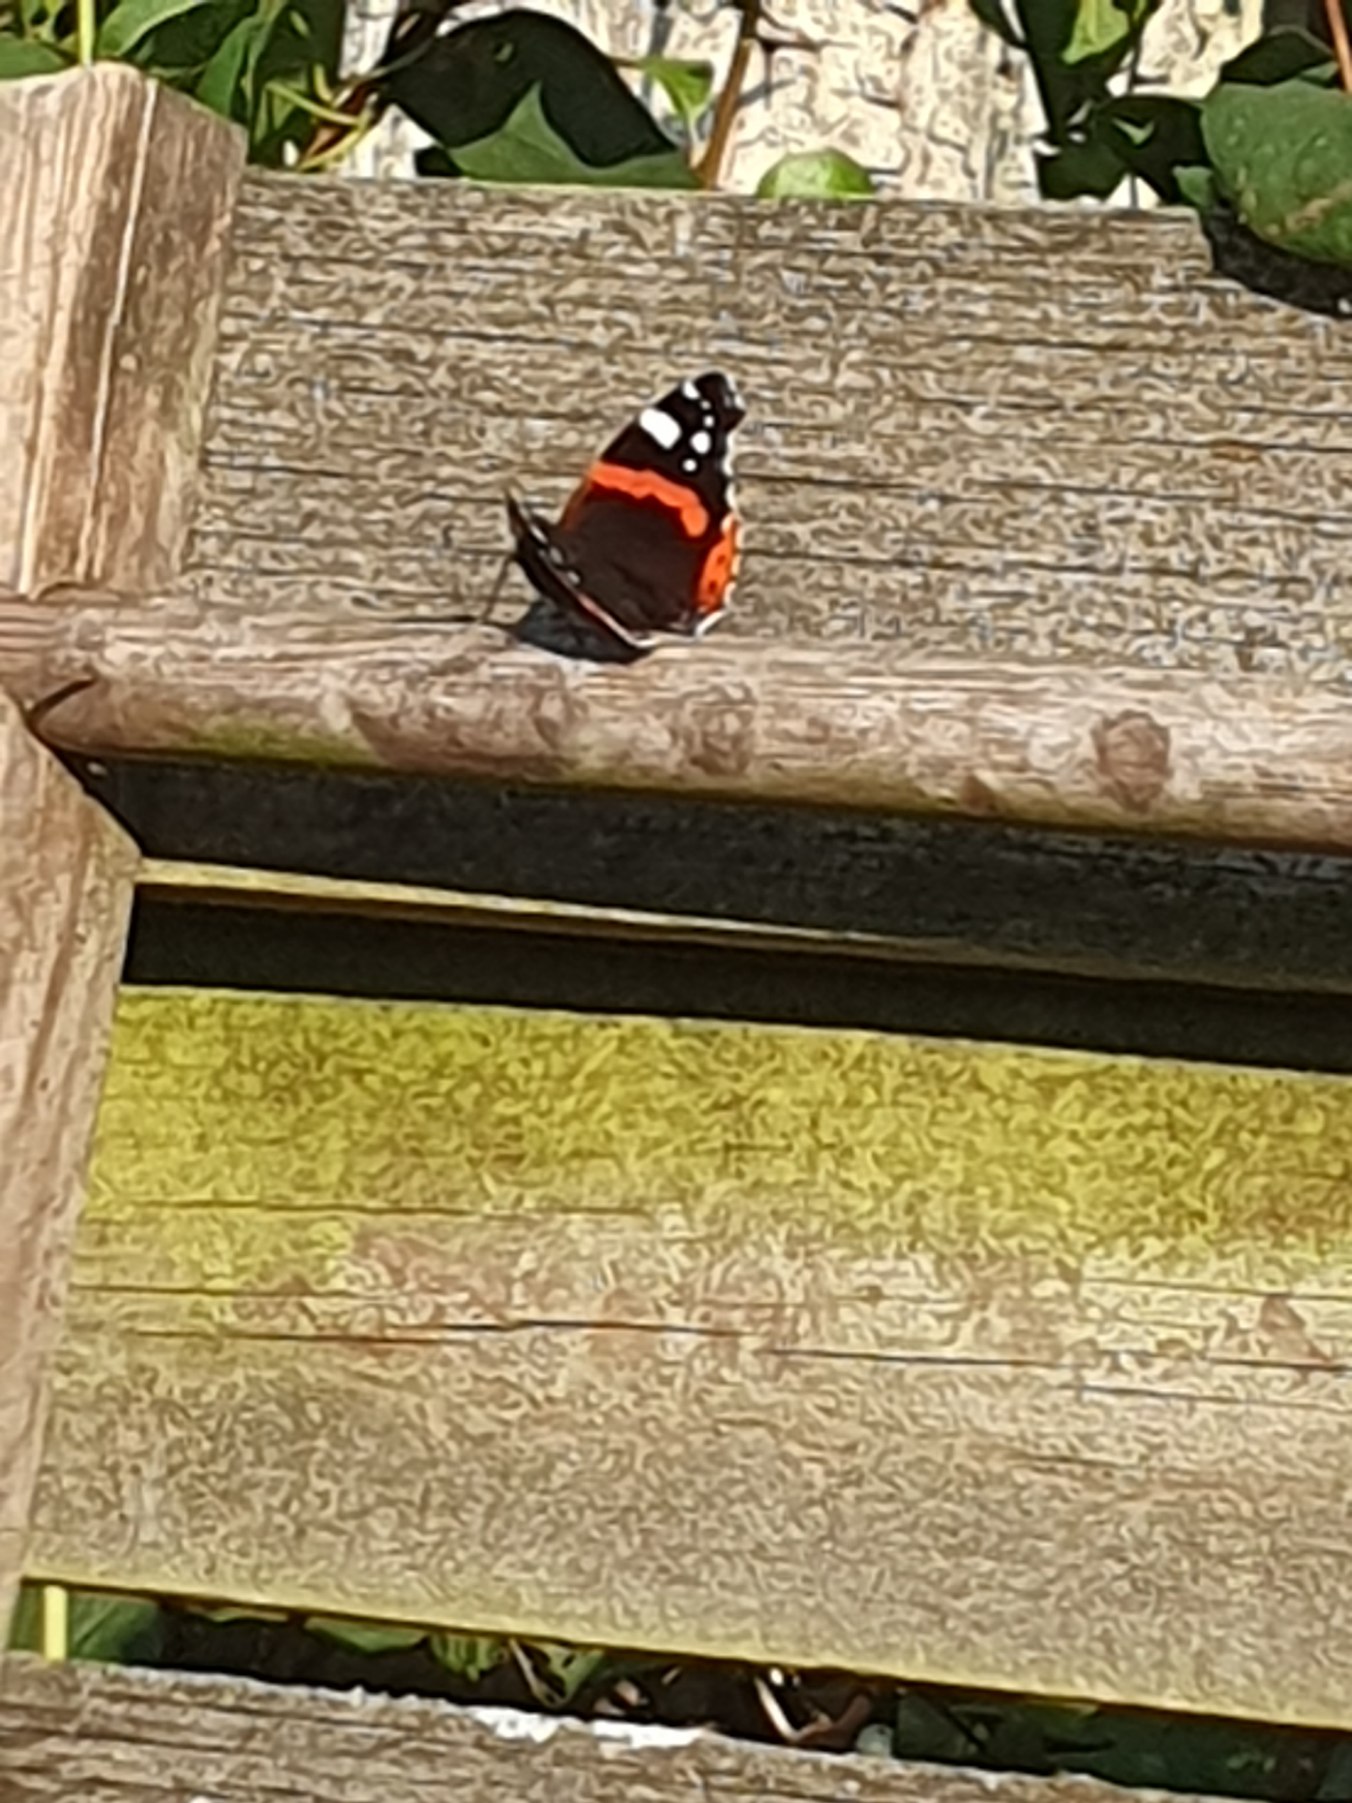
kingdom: Animalia
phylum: Arthropoda
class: Insecta
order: Lepidoptera
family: Nymphalidae
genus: Vanessa
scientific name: Vanessa atalanta
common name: Admiral
